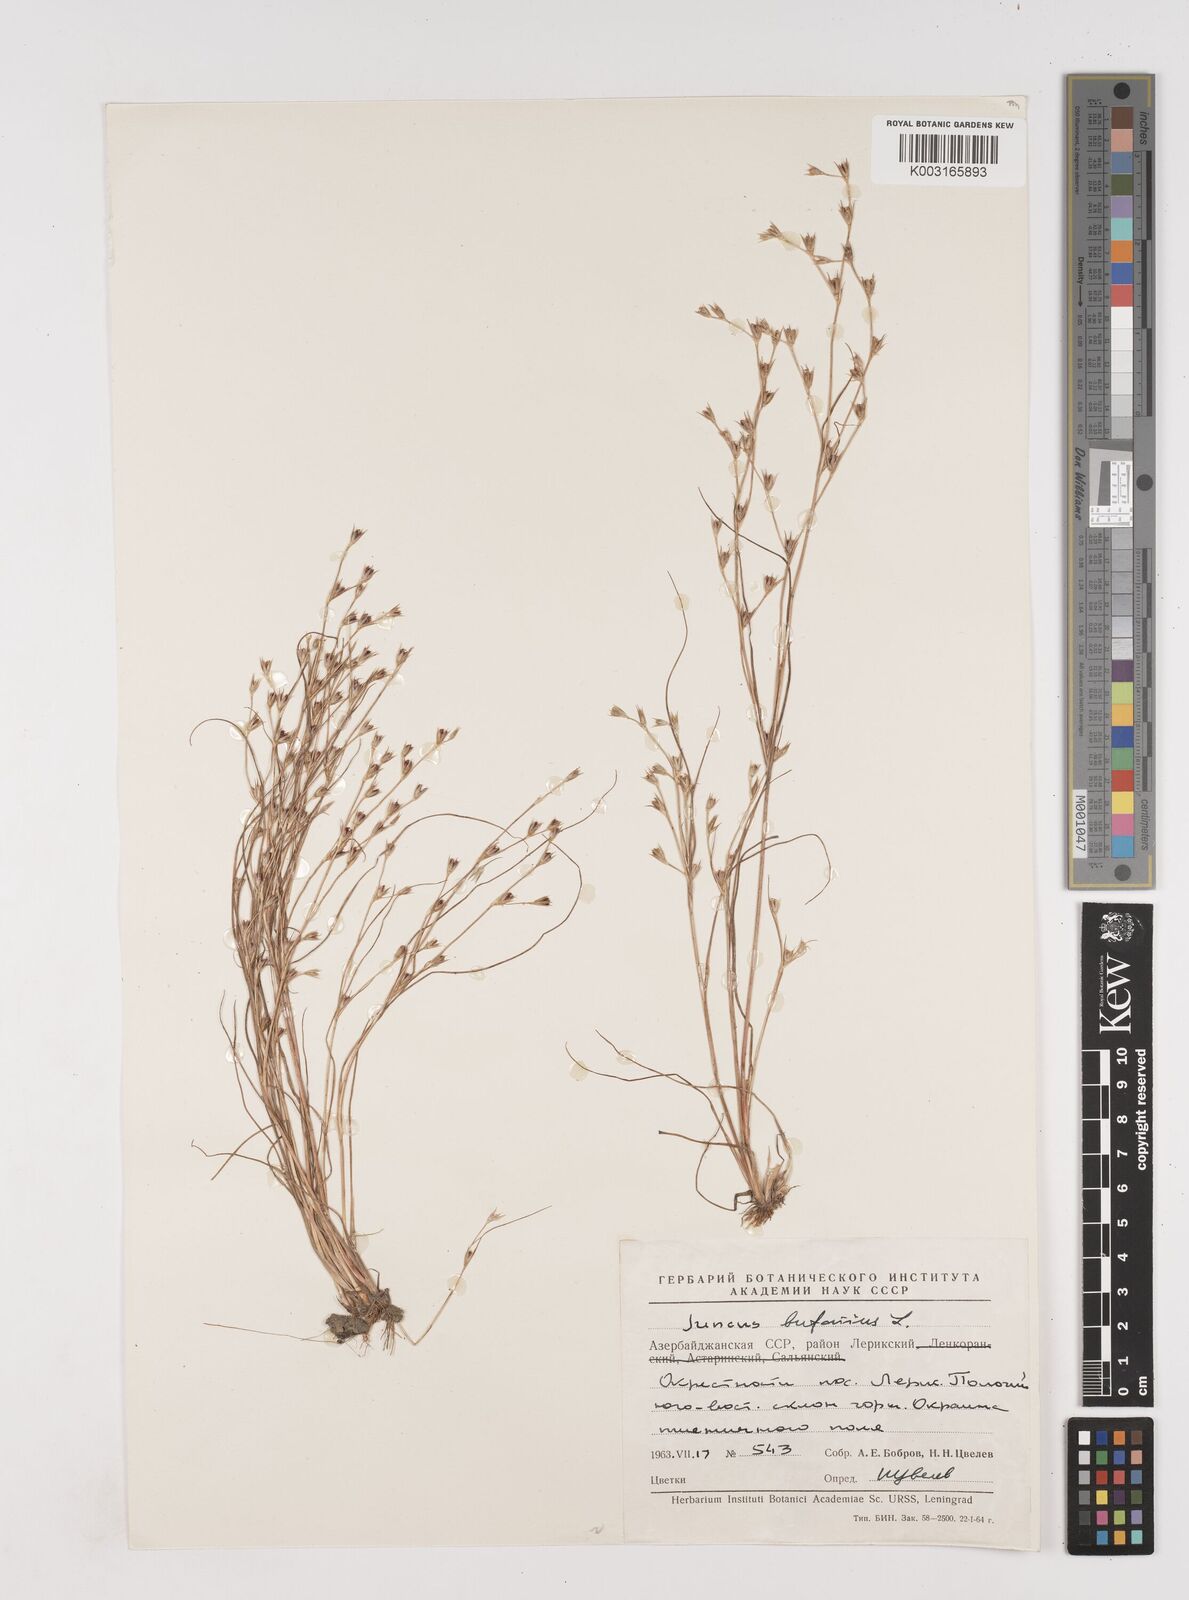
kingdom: Plantae
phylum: Tracheophyta
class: Liliopsida
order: Poales
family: Juncaceae
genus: Juncus
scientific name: Juncus bufonius
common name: Toad rush
